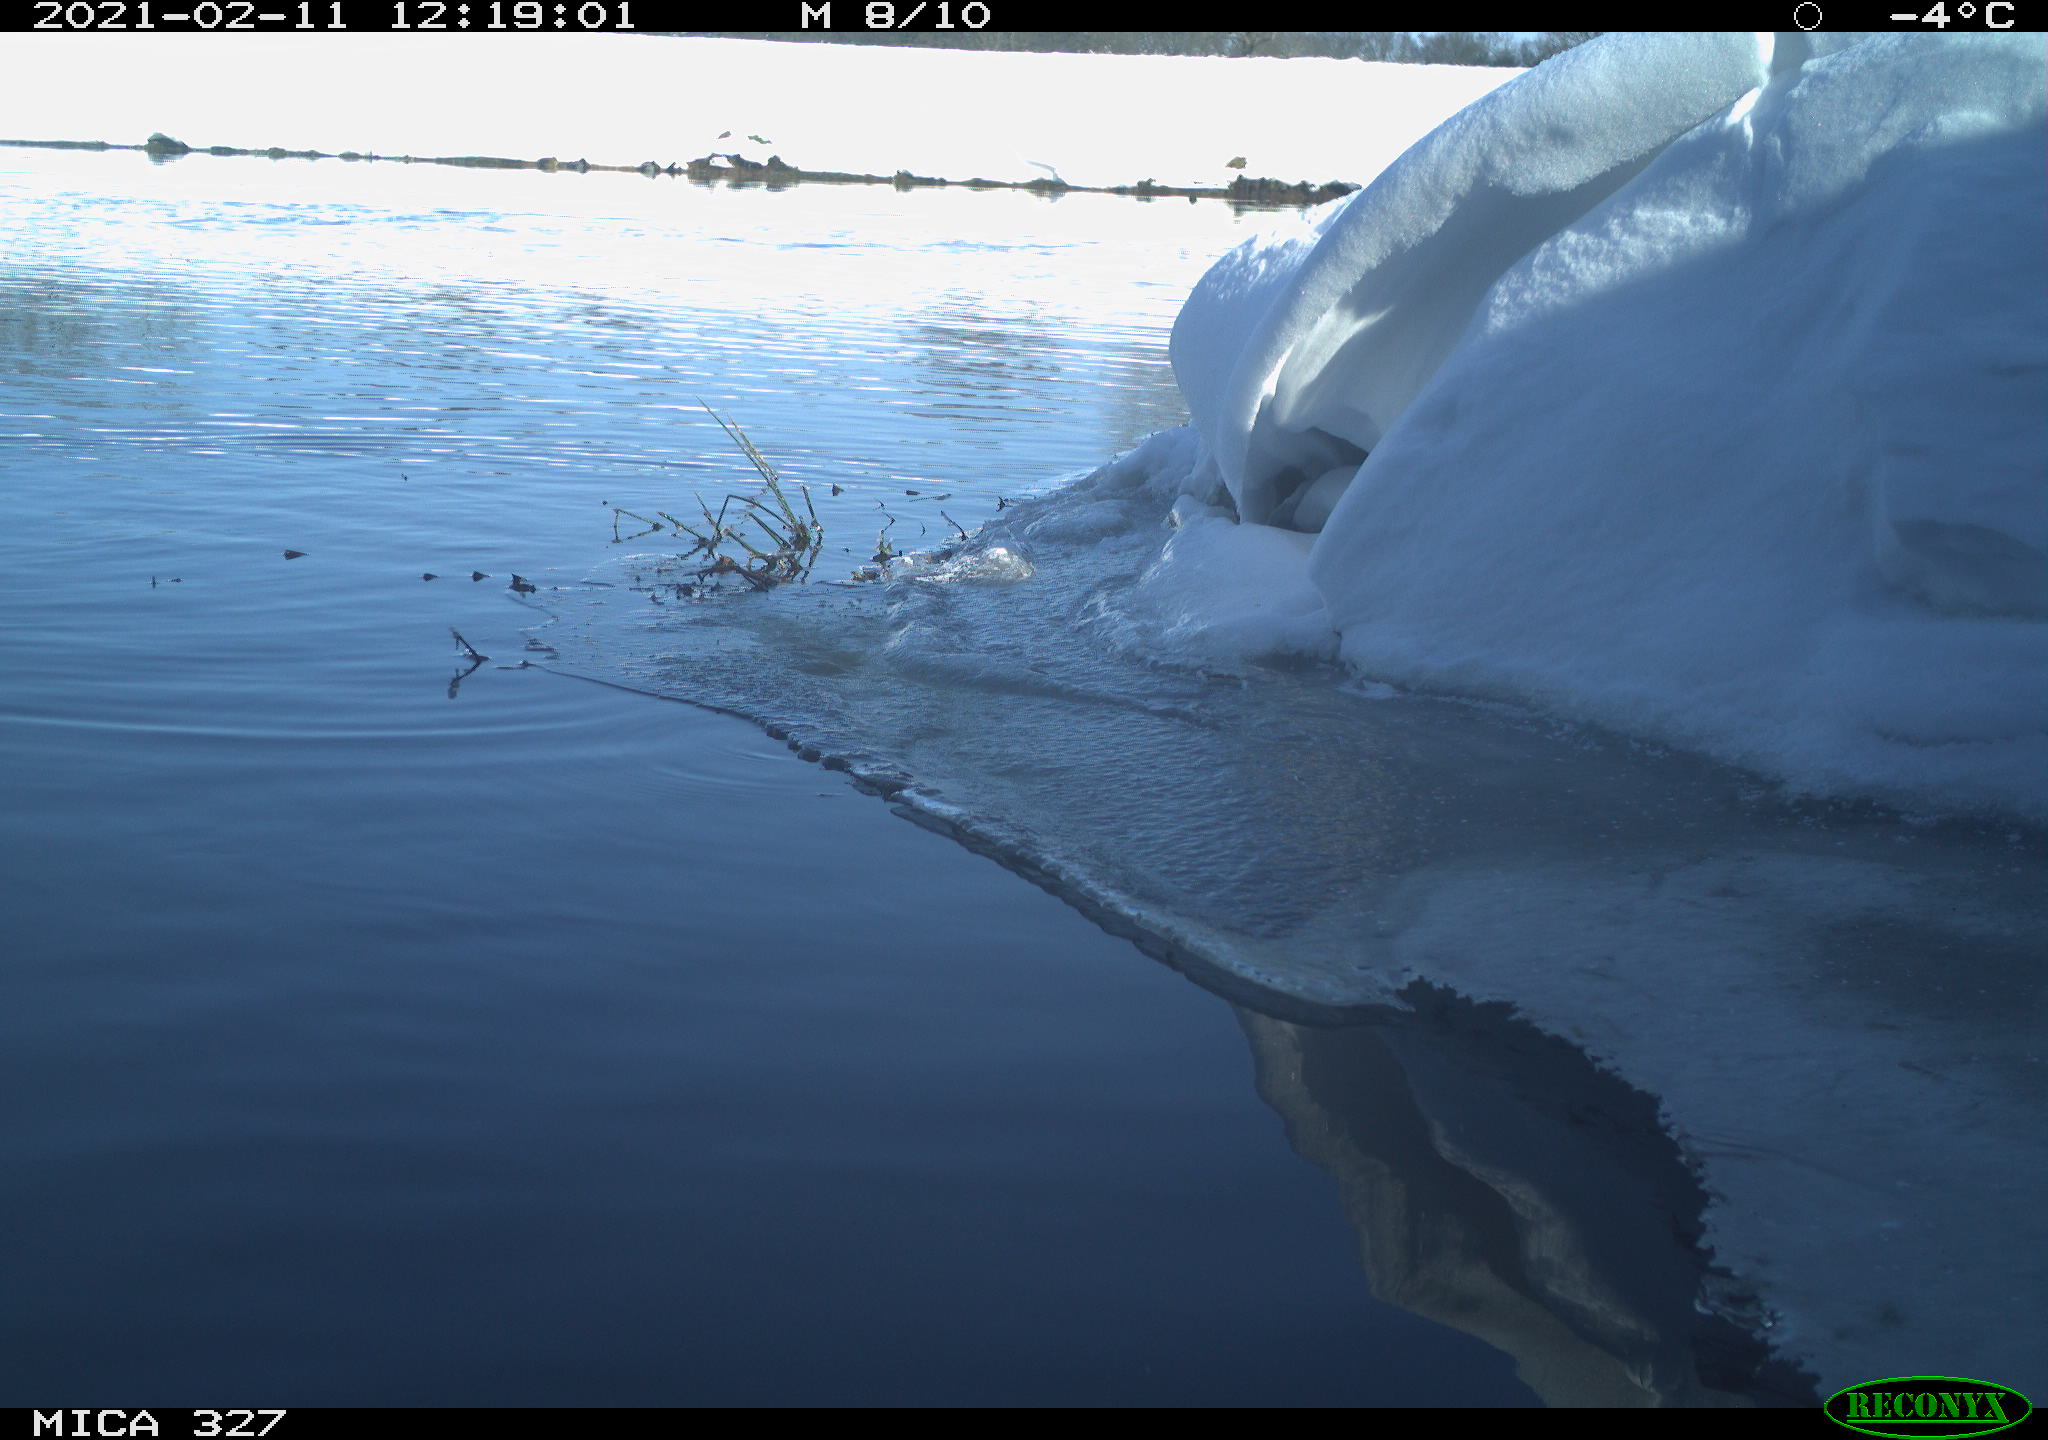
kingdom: Animalia
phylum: Chordata
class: Aves
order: Anseriformes
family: Anatidae
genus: Anas
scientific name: Anas
